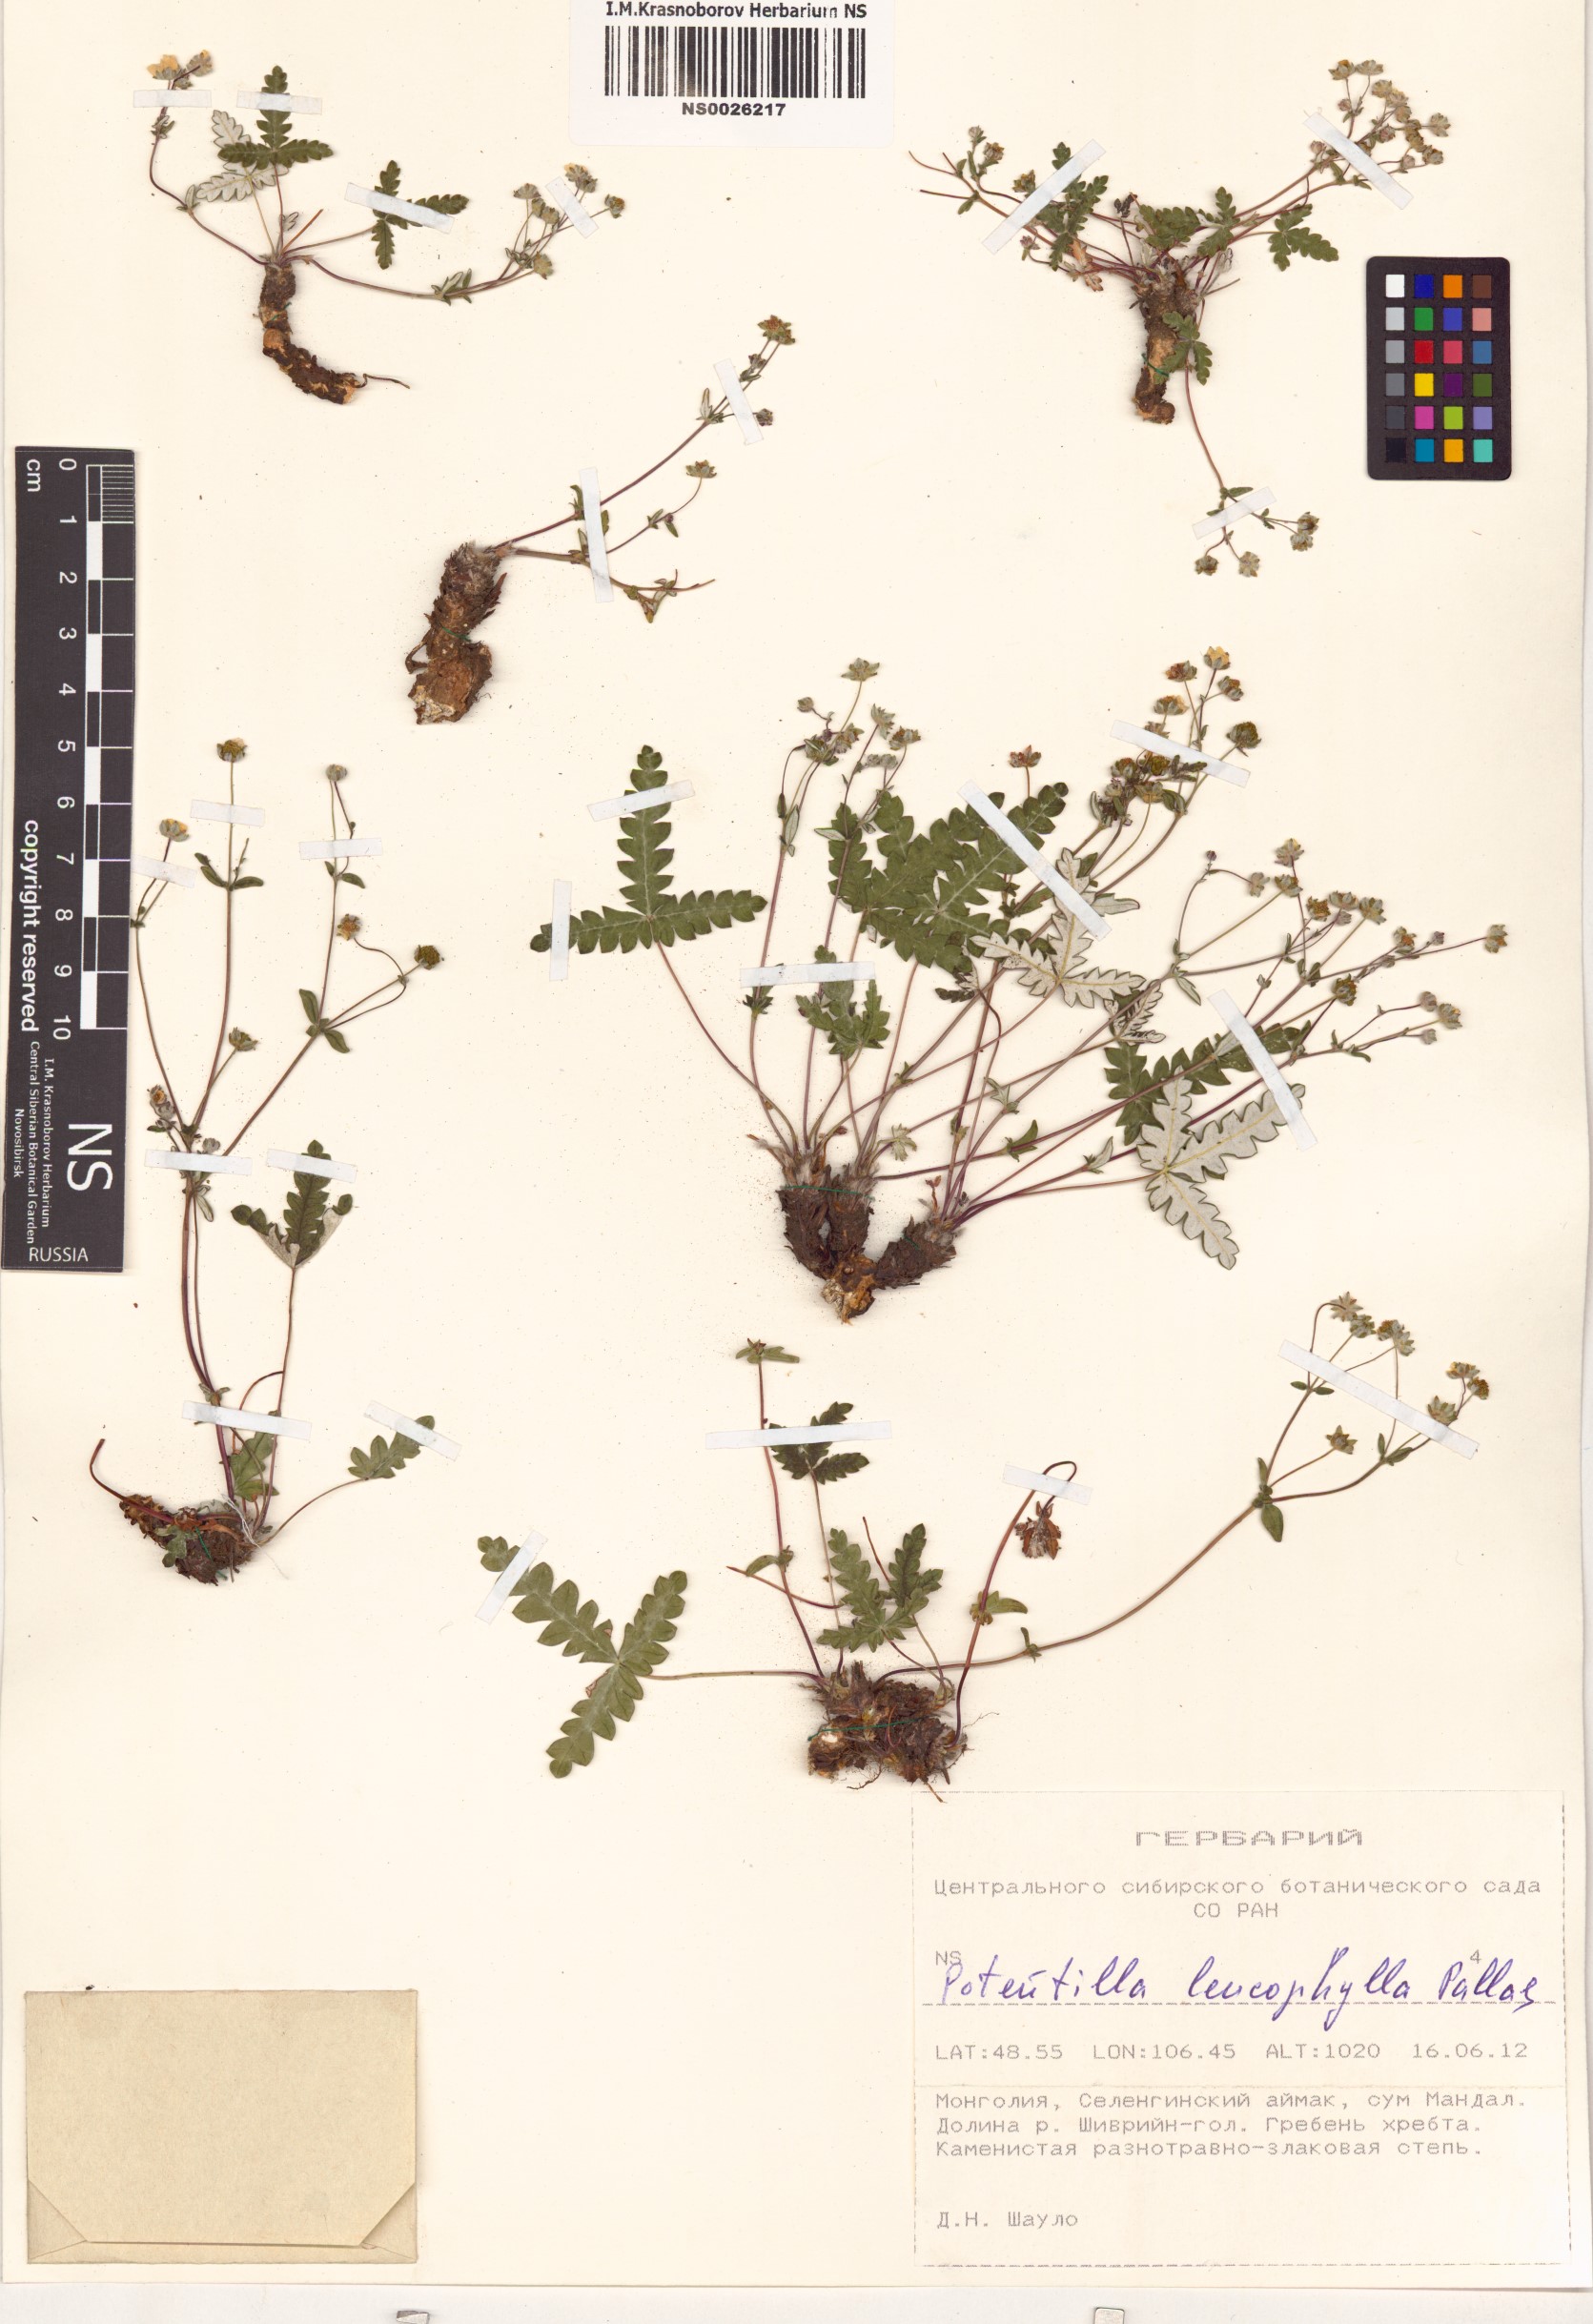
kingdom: Plantae
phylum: Tracheophyta
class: Magnoliopsida
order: Rosales
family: Rosaceae
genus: Potentilla
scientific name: Potentilla leucophylla
